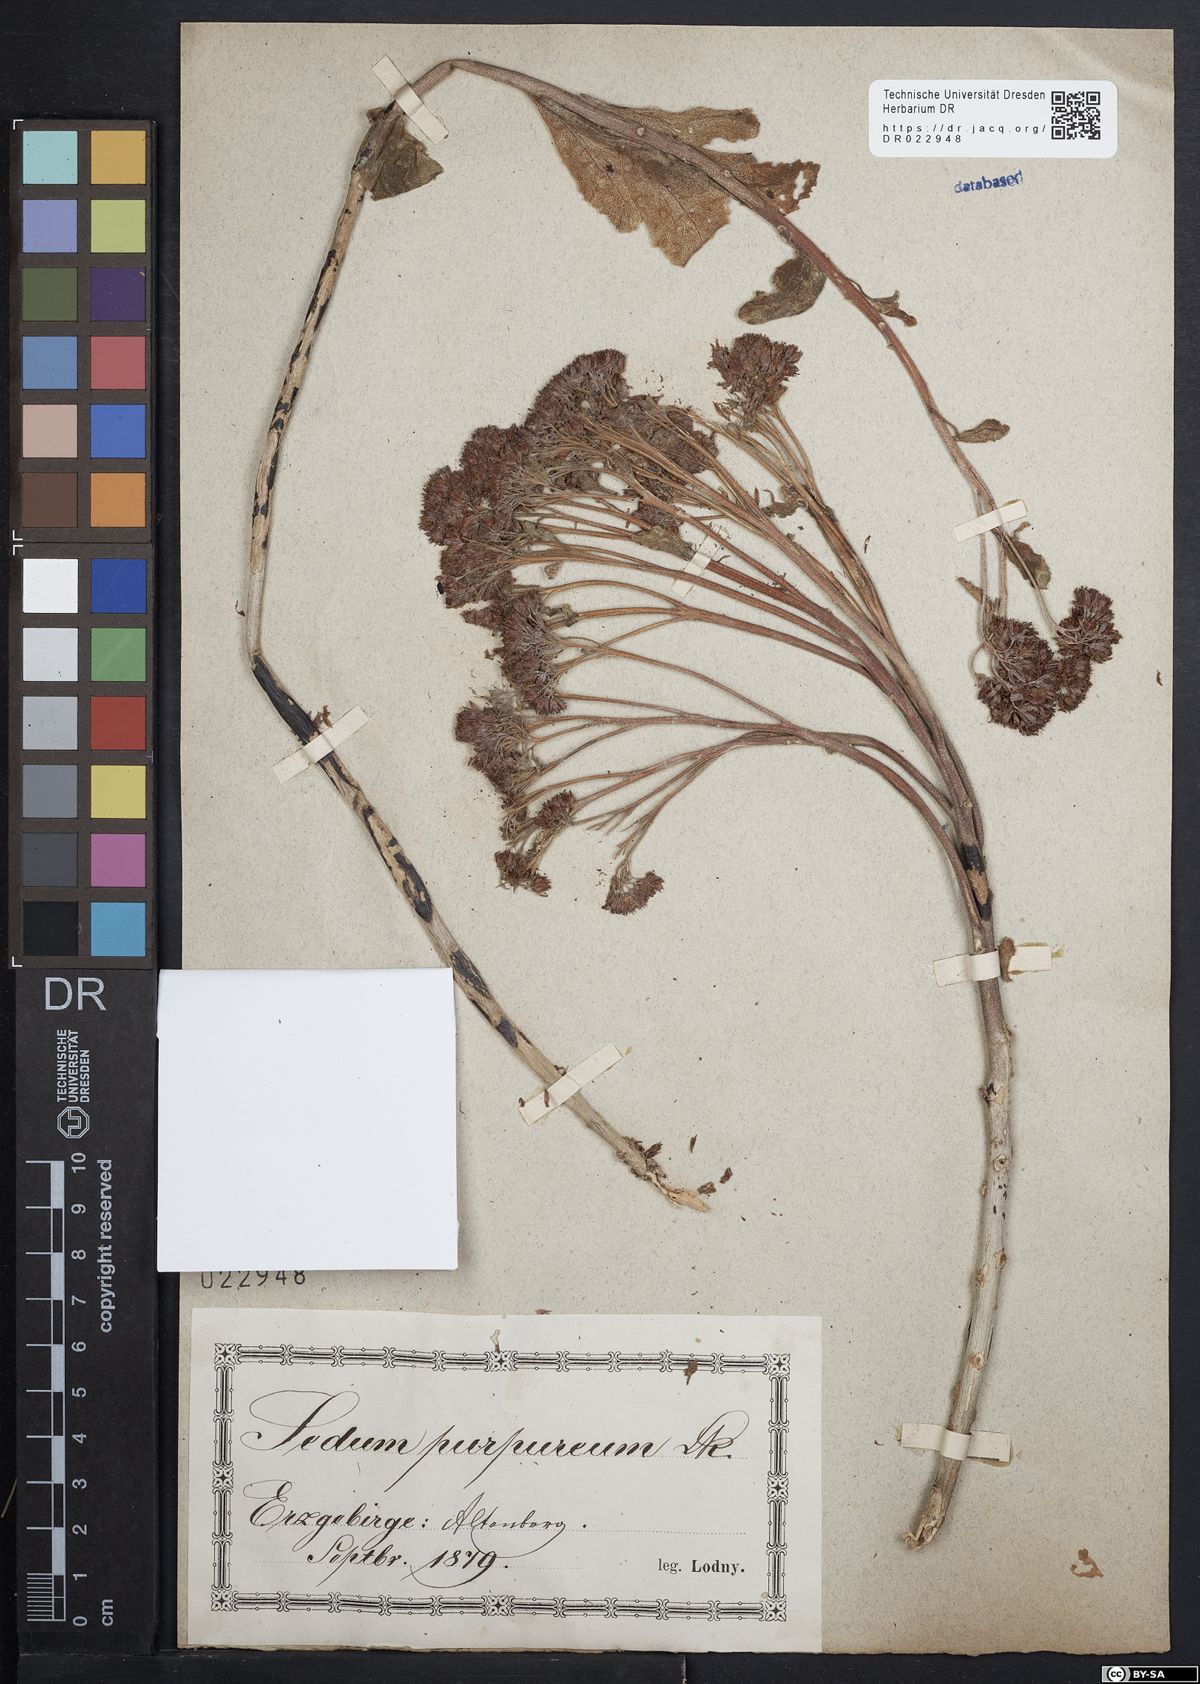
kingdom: Plantae
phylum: Tracheophyta
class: Magnoliopsida
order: Saxifragales
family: Crassulaceae
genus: Hylotelephium
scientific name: Hylotelephium telephium
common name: Live-forever
